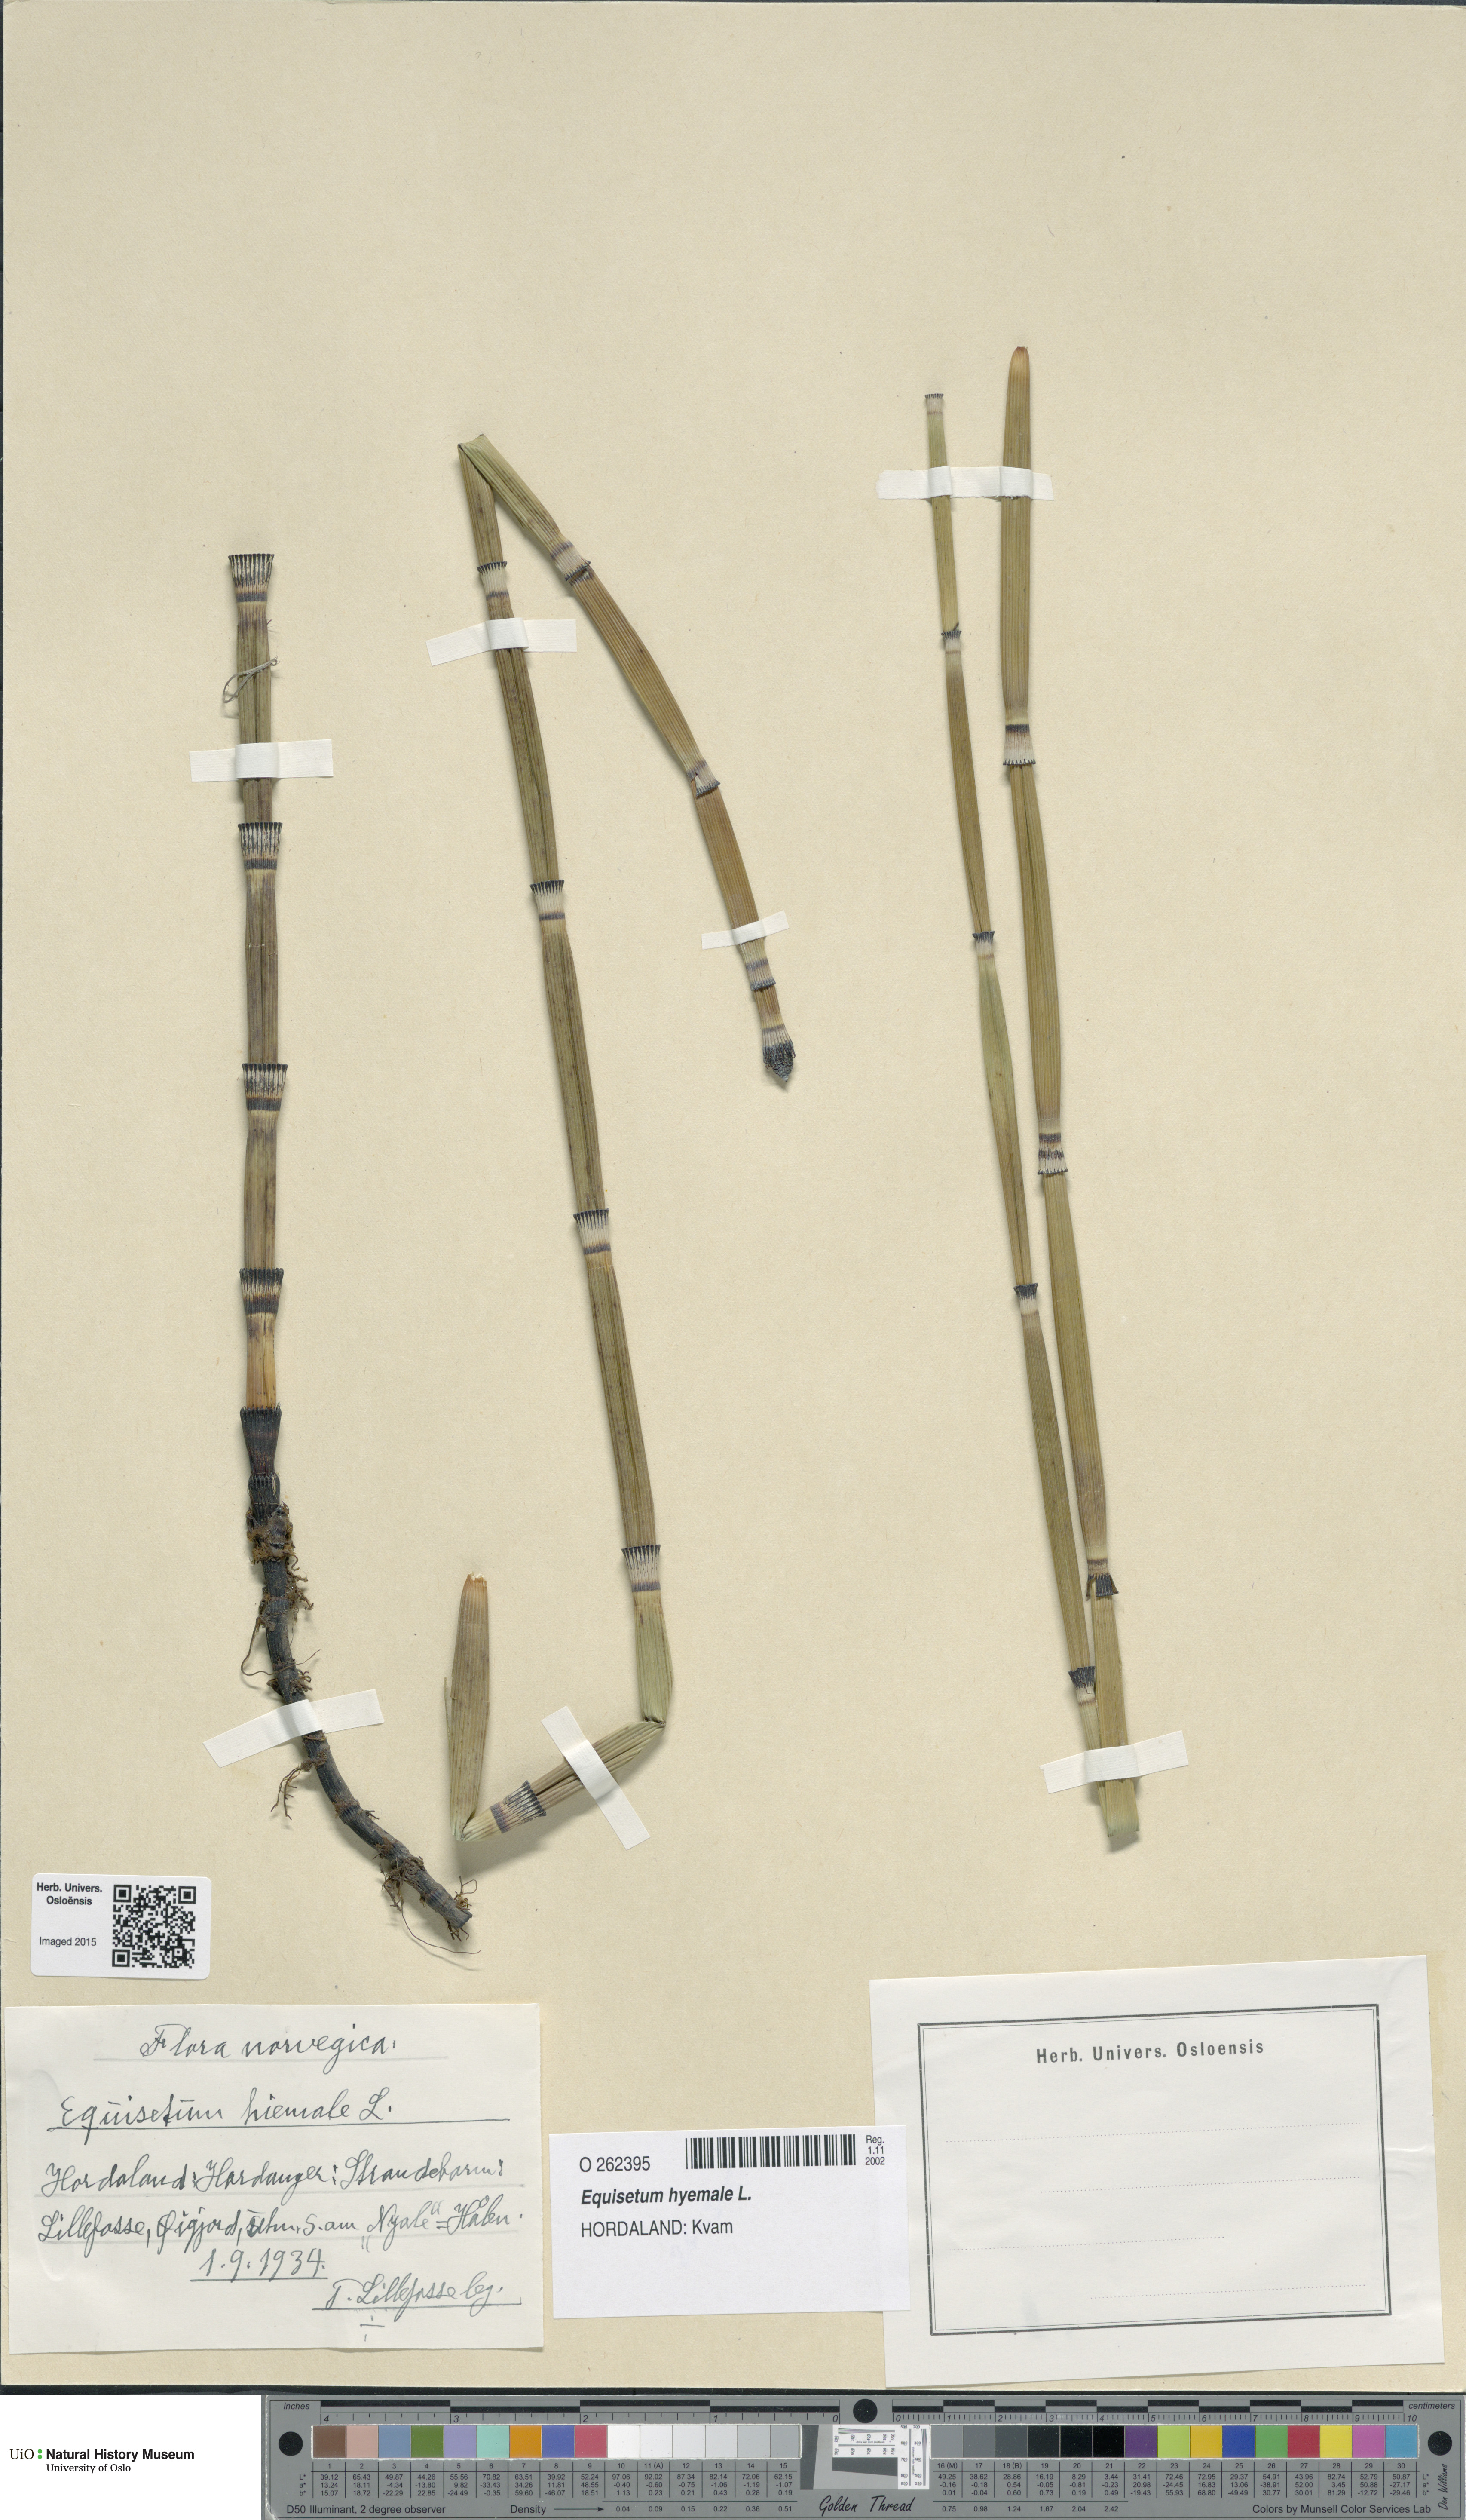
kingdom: Plantae
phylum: Tracheophyta
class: Polypodiopsida
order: Equisetales
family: Equisetaceae
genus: Equisetum
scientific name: Equisetum hyemale
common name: Rough horsetail
